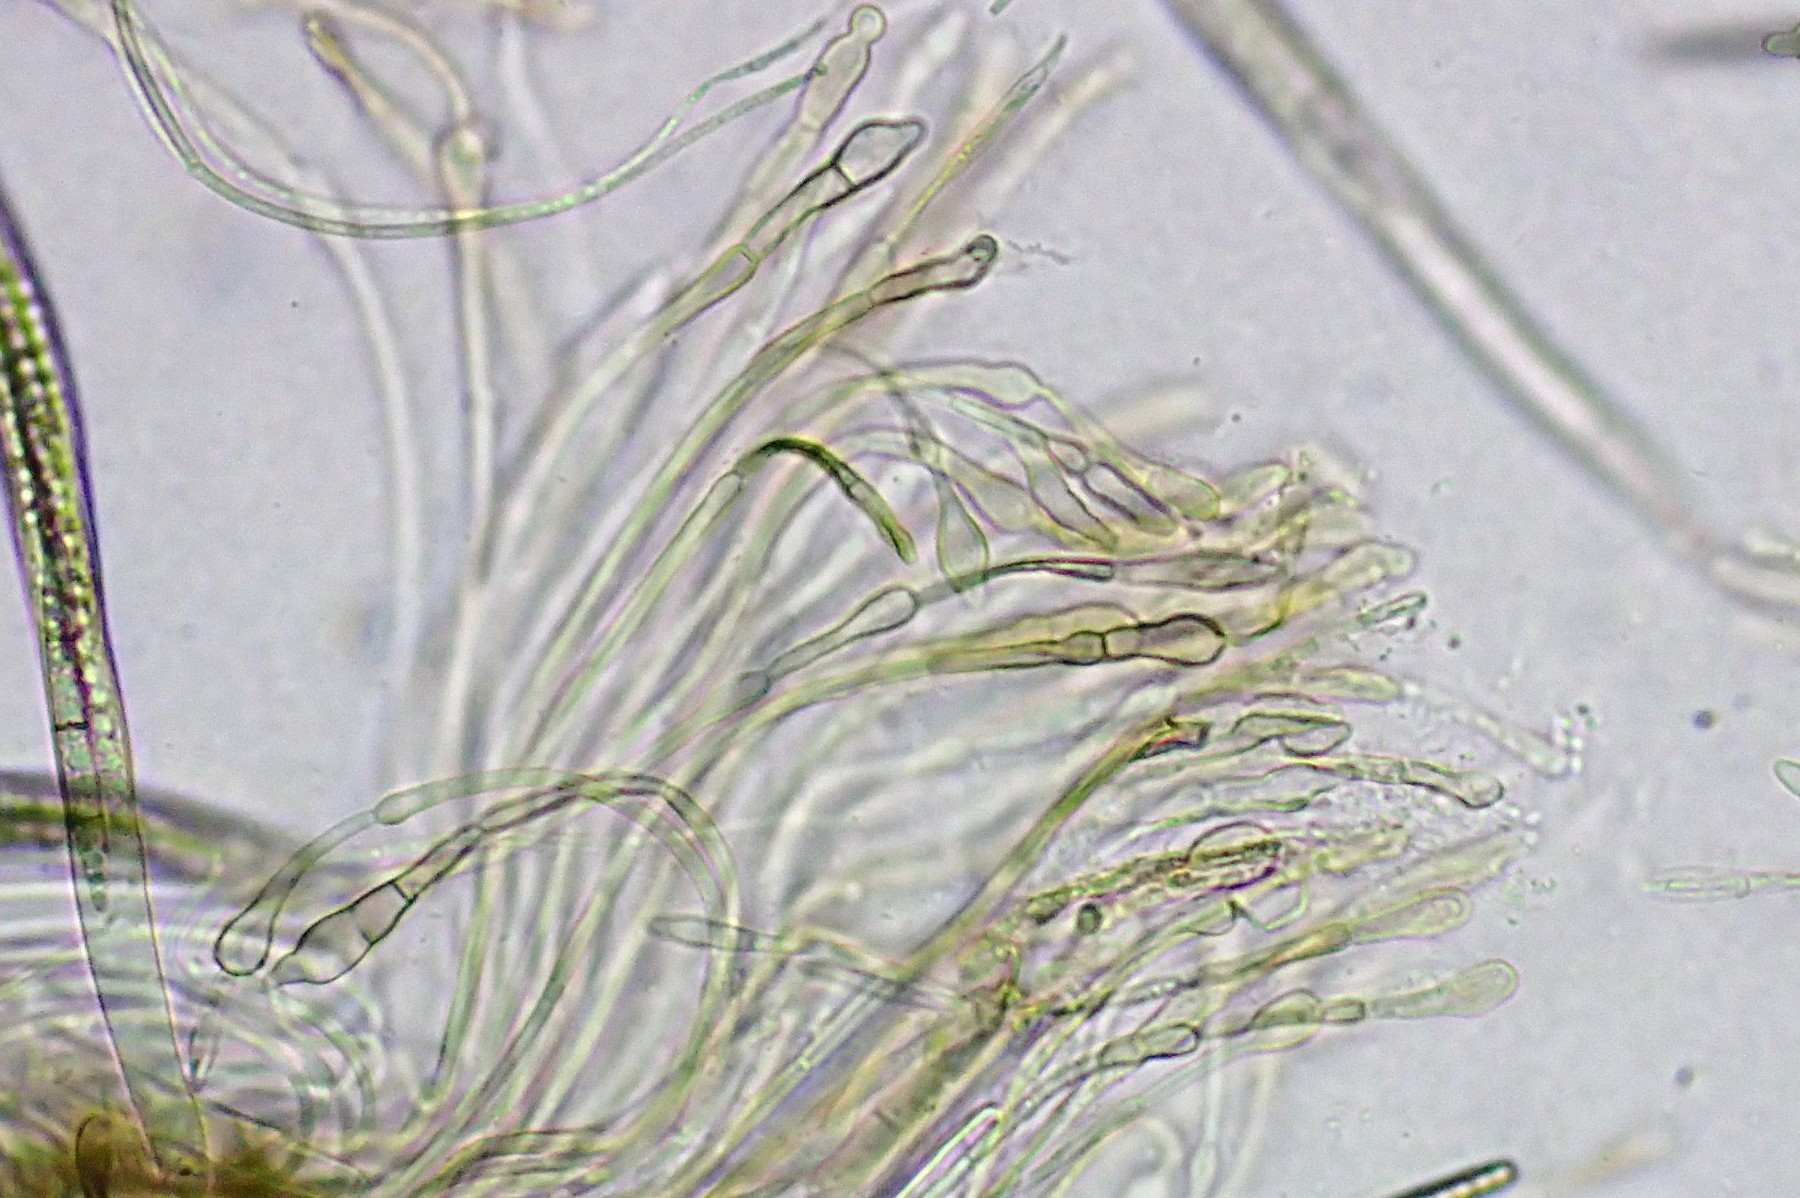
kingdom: Fungi
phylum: Ascomycota
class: Geoglossomycetes
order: Geoglossales
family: Geoglossaceae
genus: Glutinoglossum
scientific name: Glutinoglossum glutinosum
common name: slimet jordtunge
